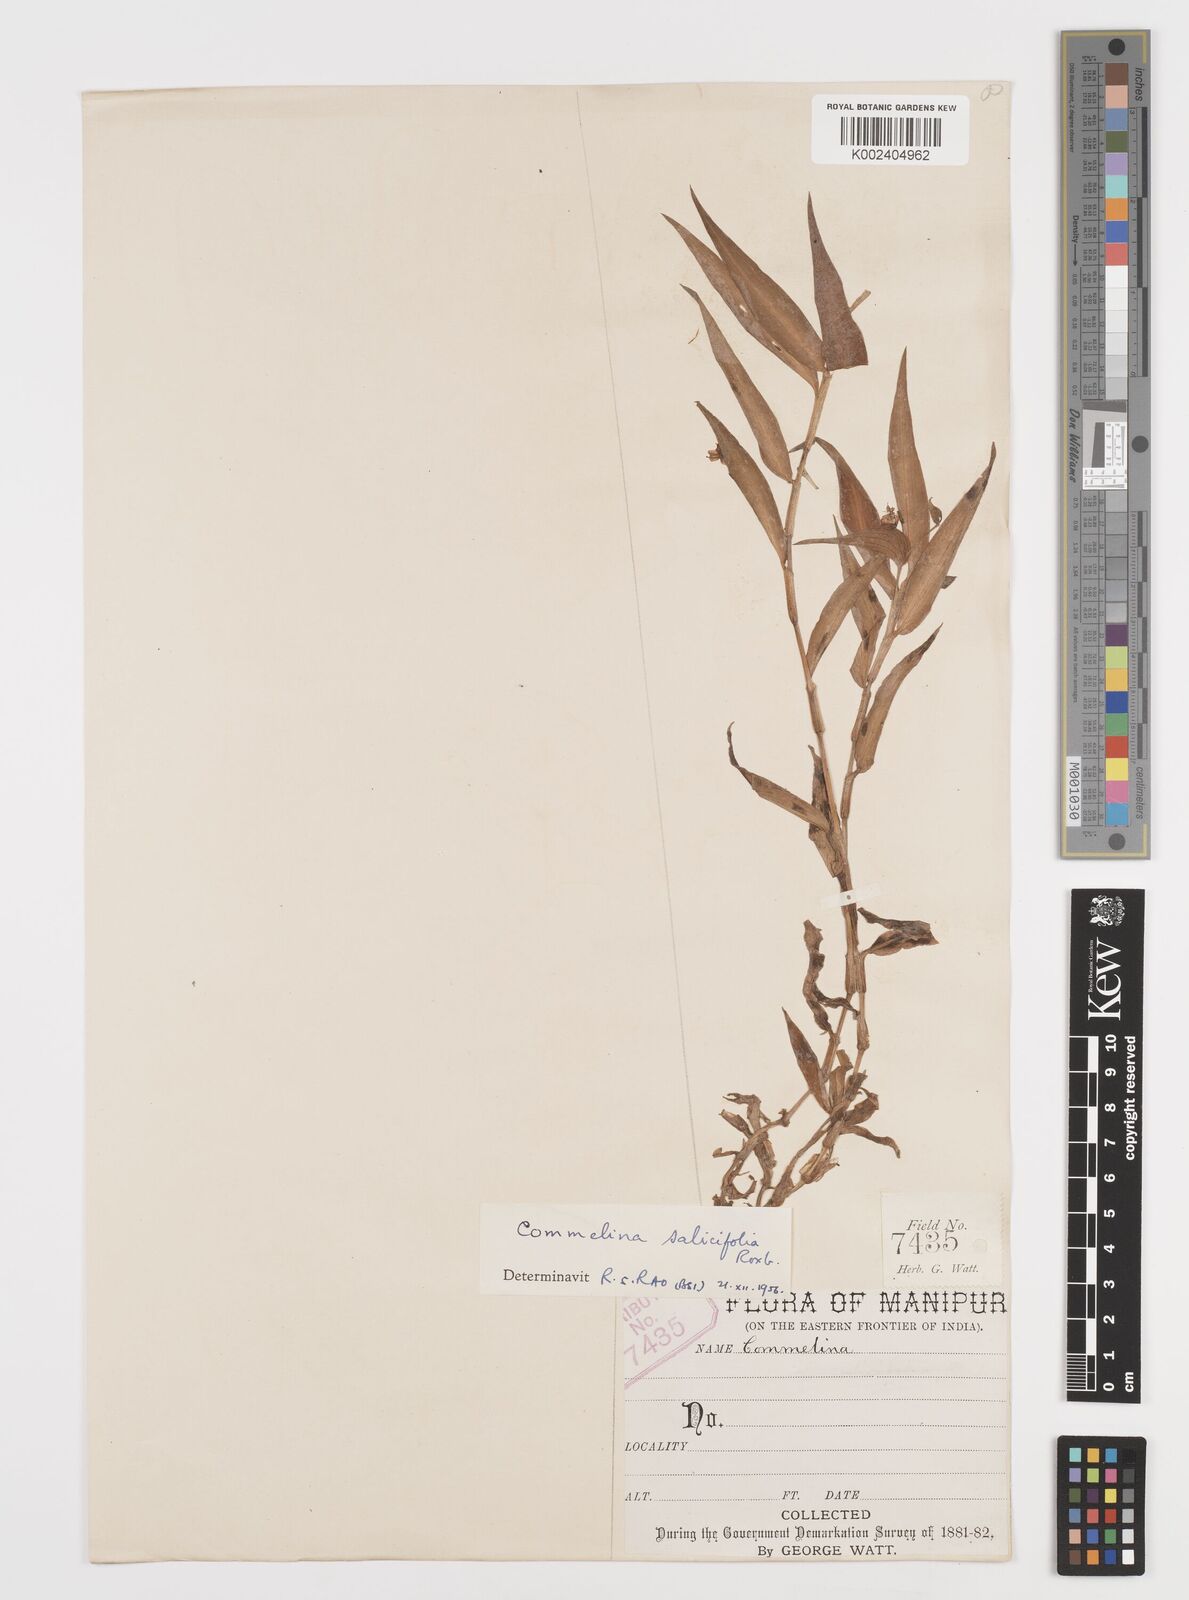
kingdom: Plantae
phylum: Tracheophyta
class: Liliopsida
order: Commelinales
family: Commelinaceae
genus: Commelina
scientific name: Commelina undulata
